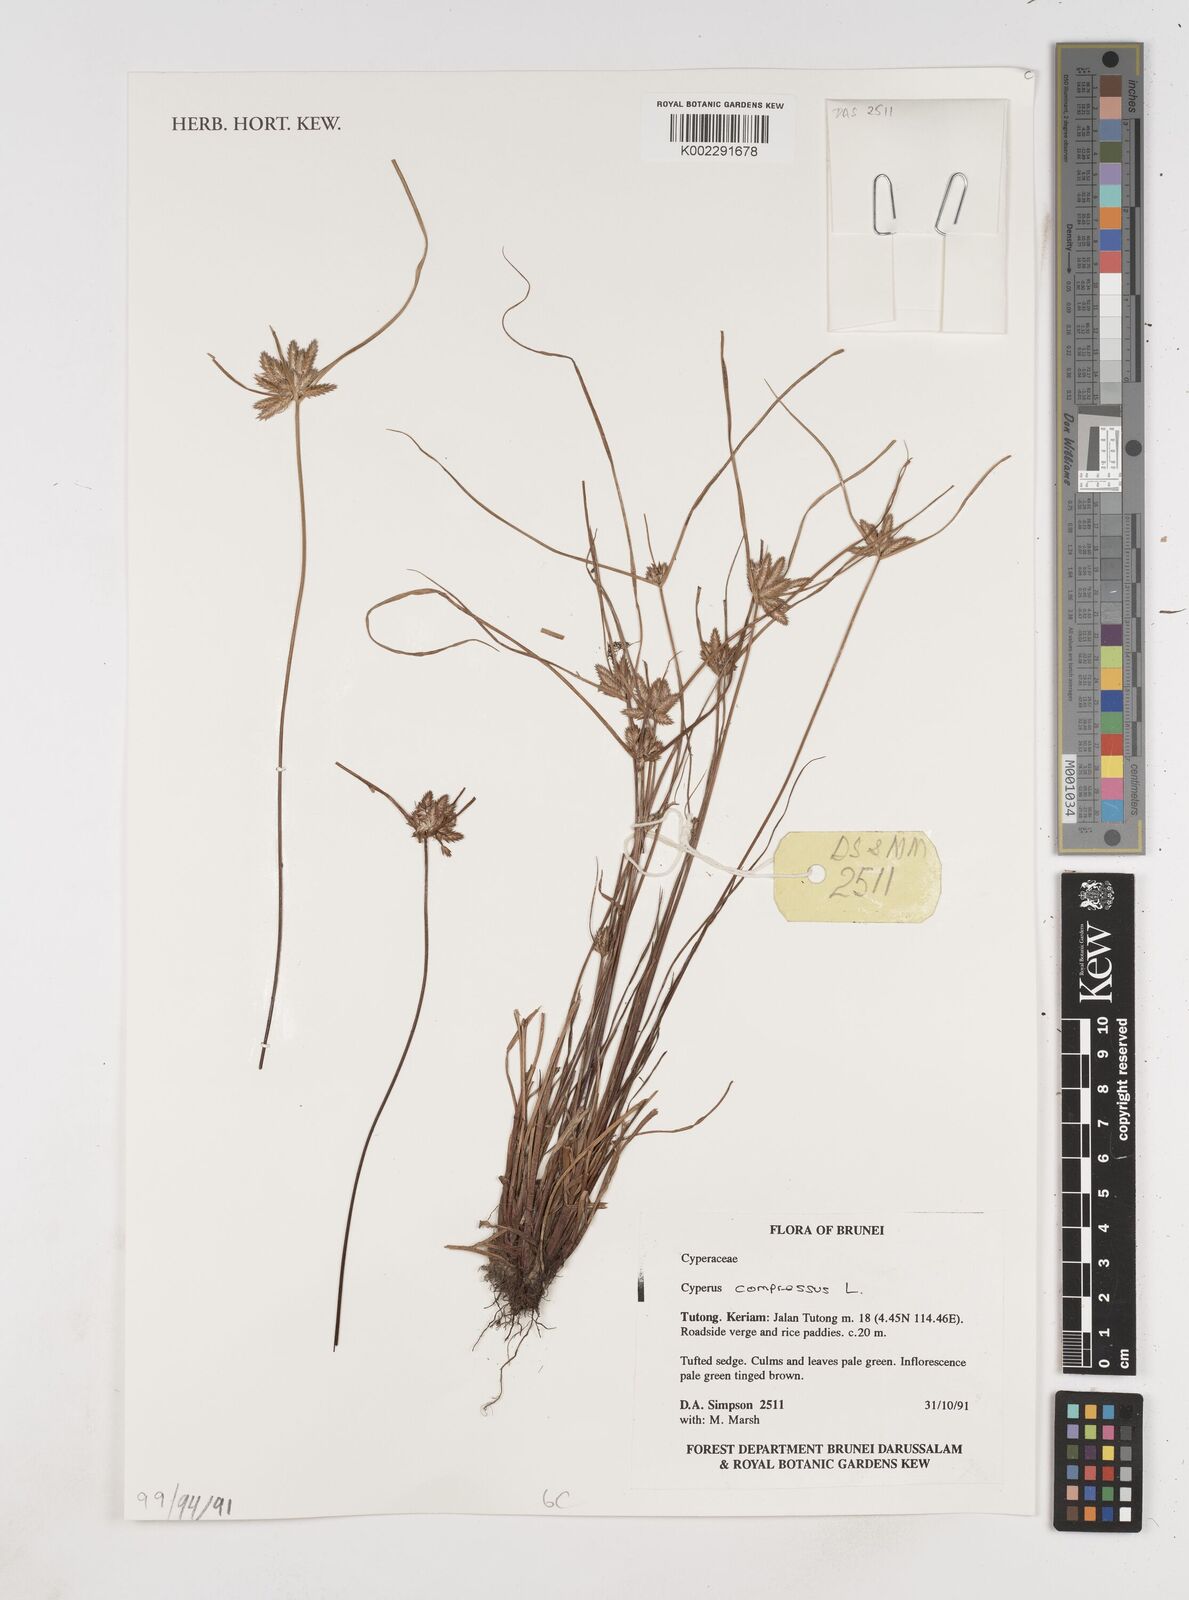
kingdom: Plantae
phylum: Tracheophyta
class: Liliopsida
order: Poales
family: Cyperaceae
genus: Cyperus
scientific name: Cyperus compressus
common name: Poorland flatsedge
